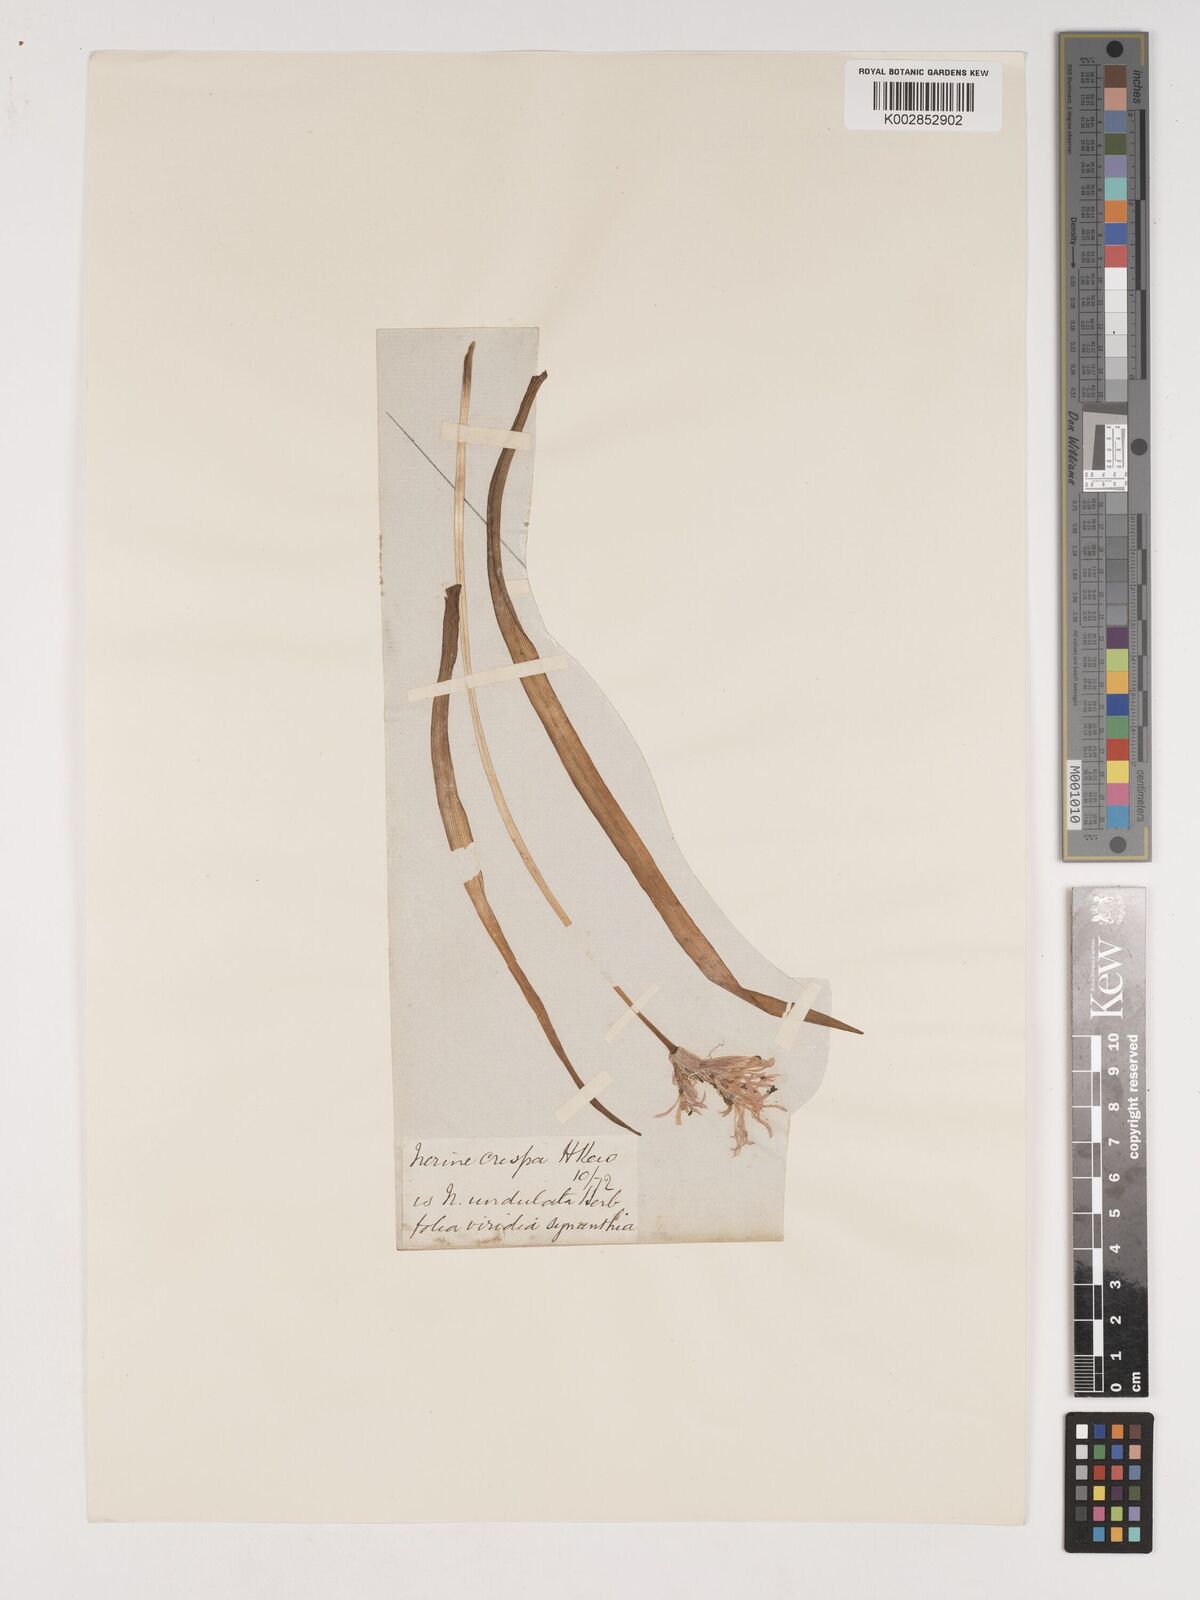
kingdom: Plantae
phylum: Tracheophyta
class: Liliopsida
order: Asparagales
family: Amaryllidaceae
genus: Nerine
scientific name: Nerine undulata
